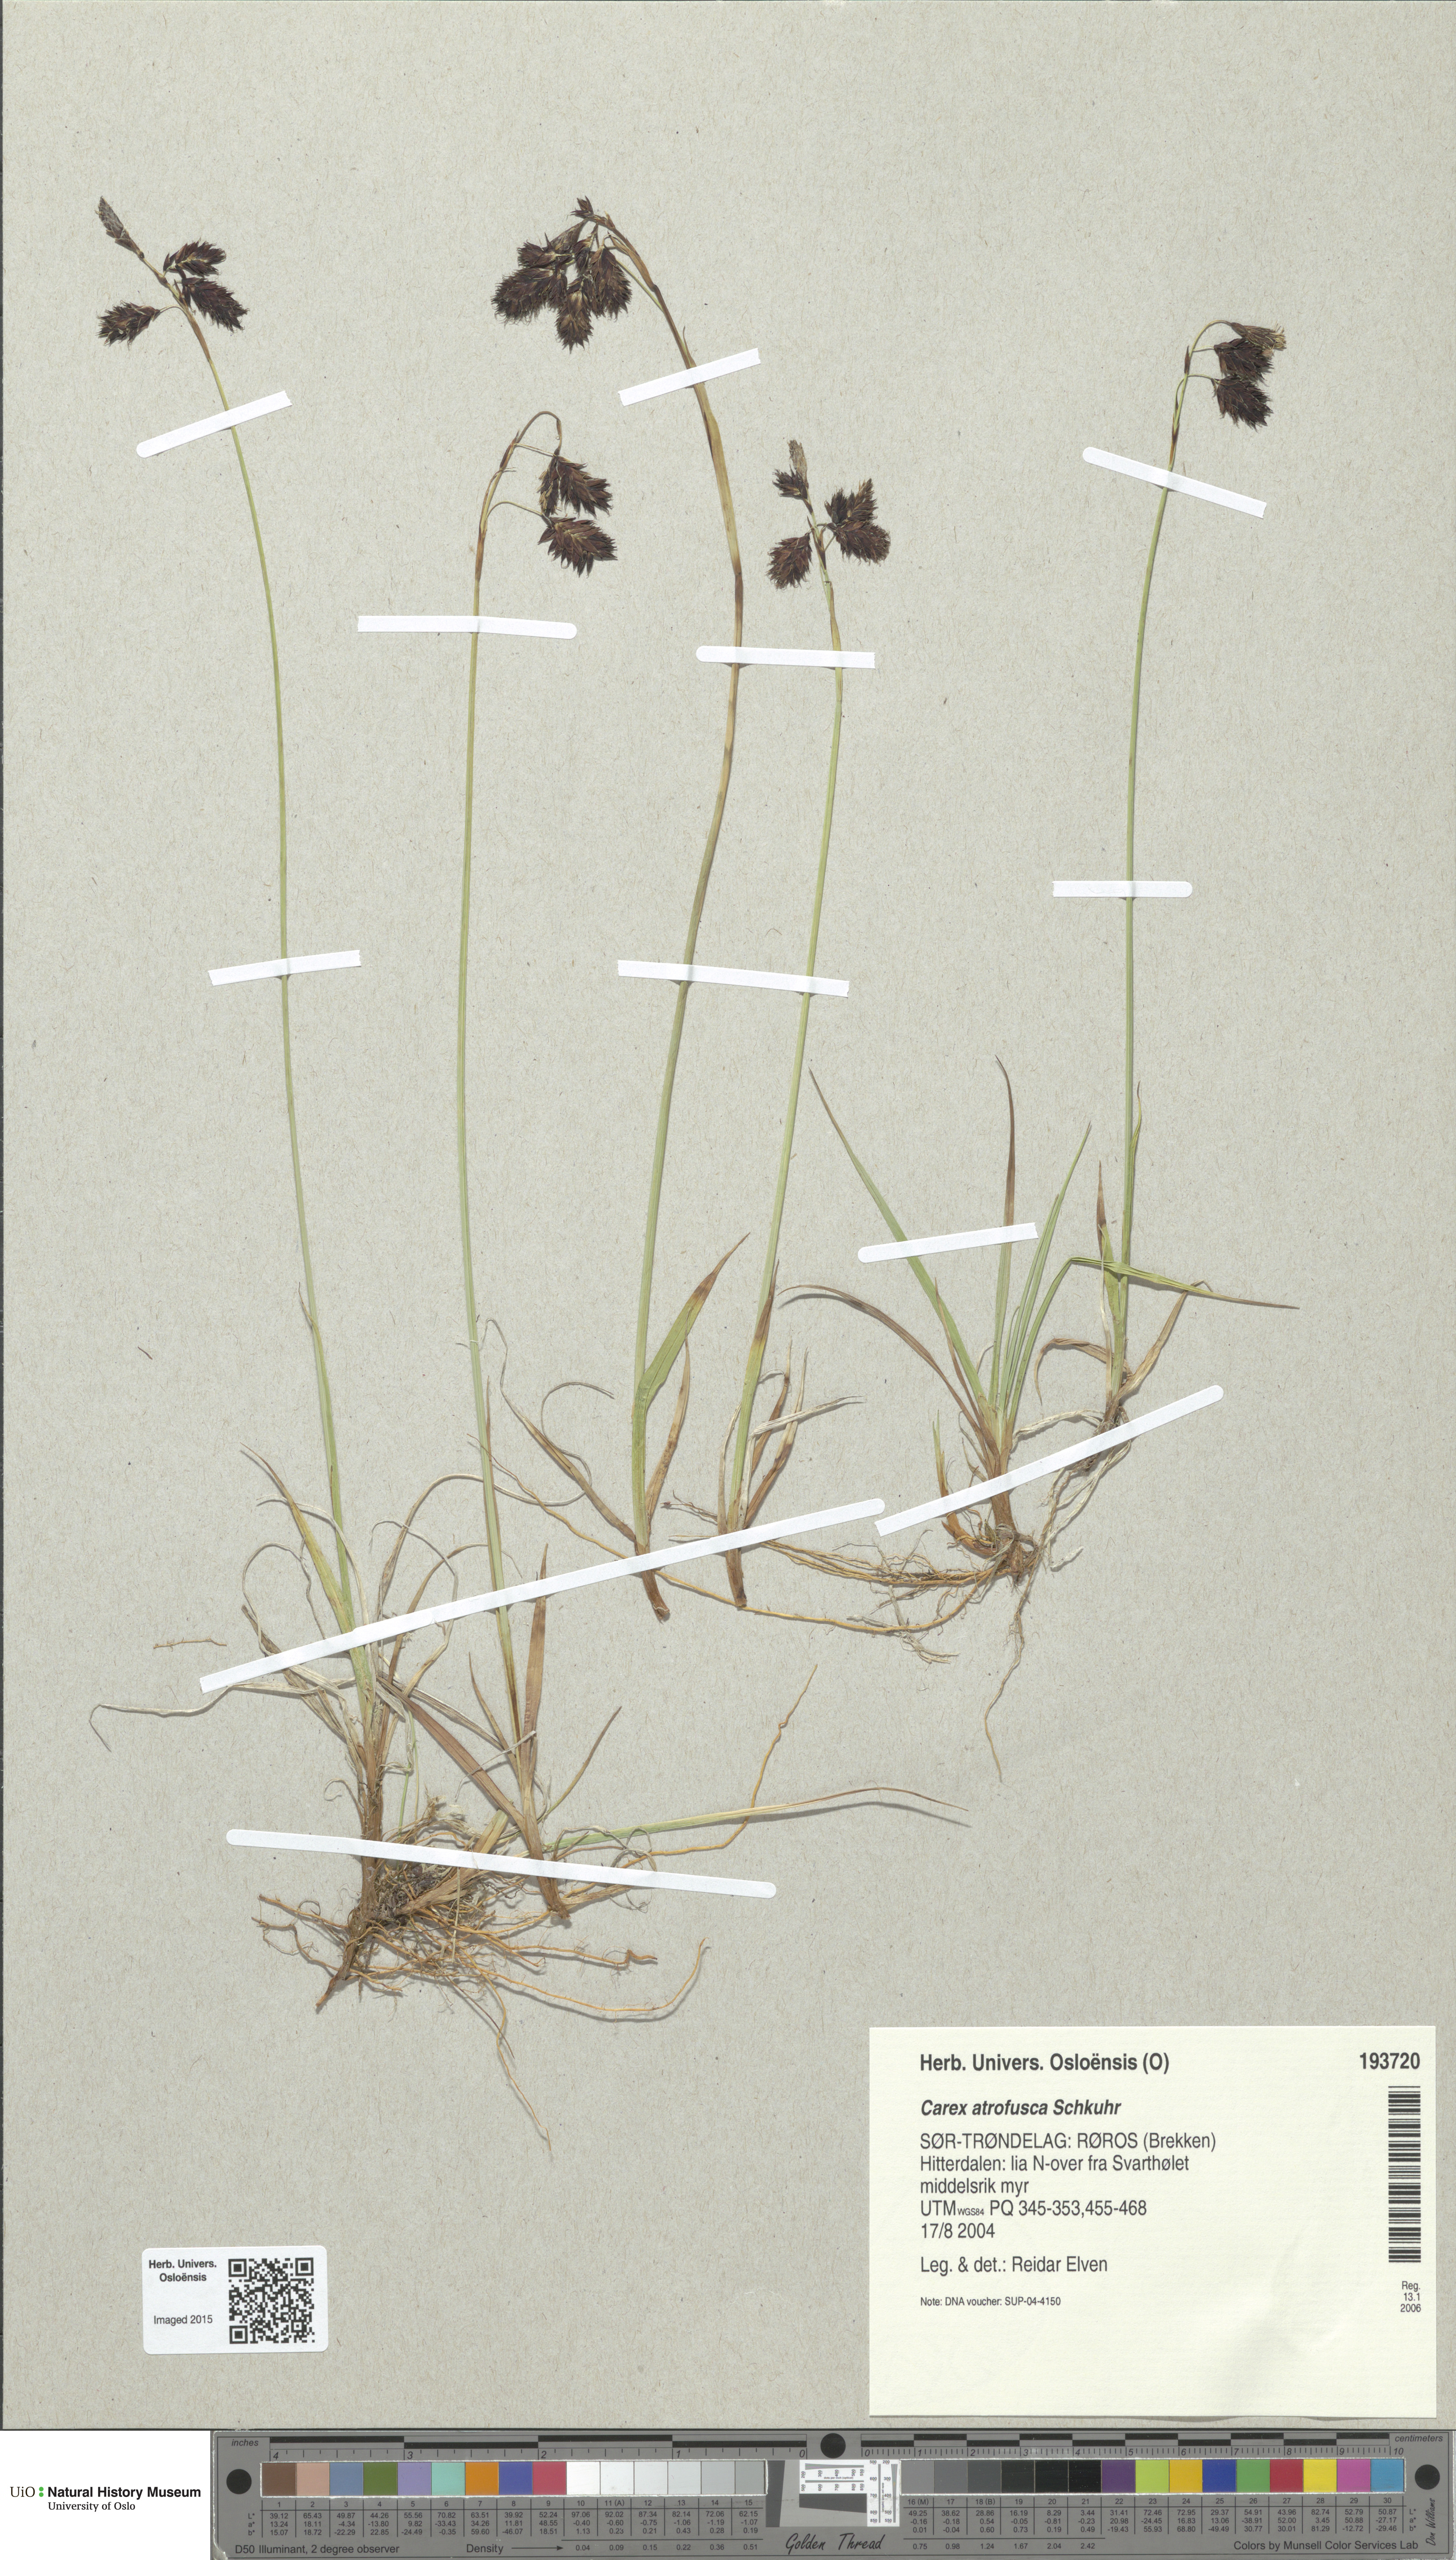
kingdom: Plantae
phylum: Tracheophyta
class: Liliopsida
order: Poales
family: Cyperaceae
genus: Carex
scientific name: Carex atrofusca
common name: Scorched alpine-sedge
